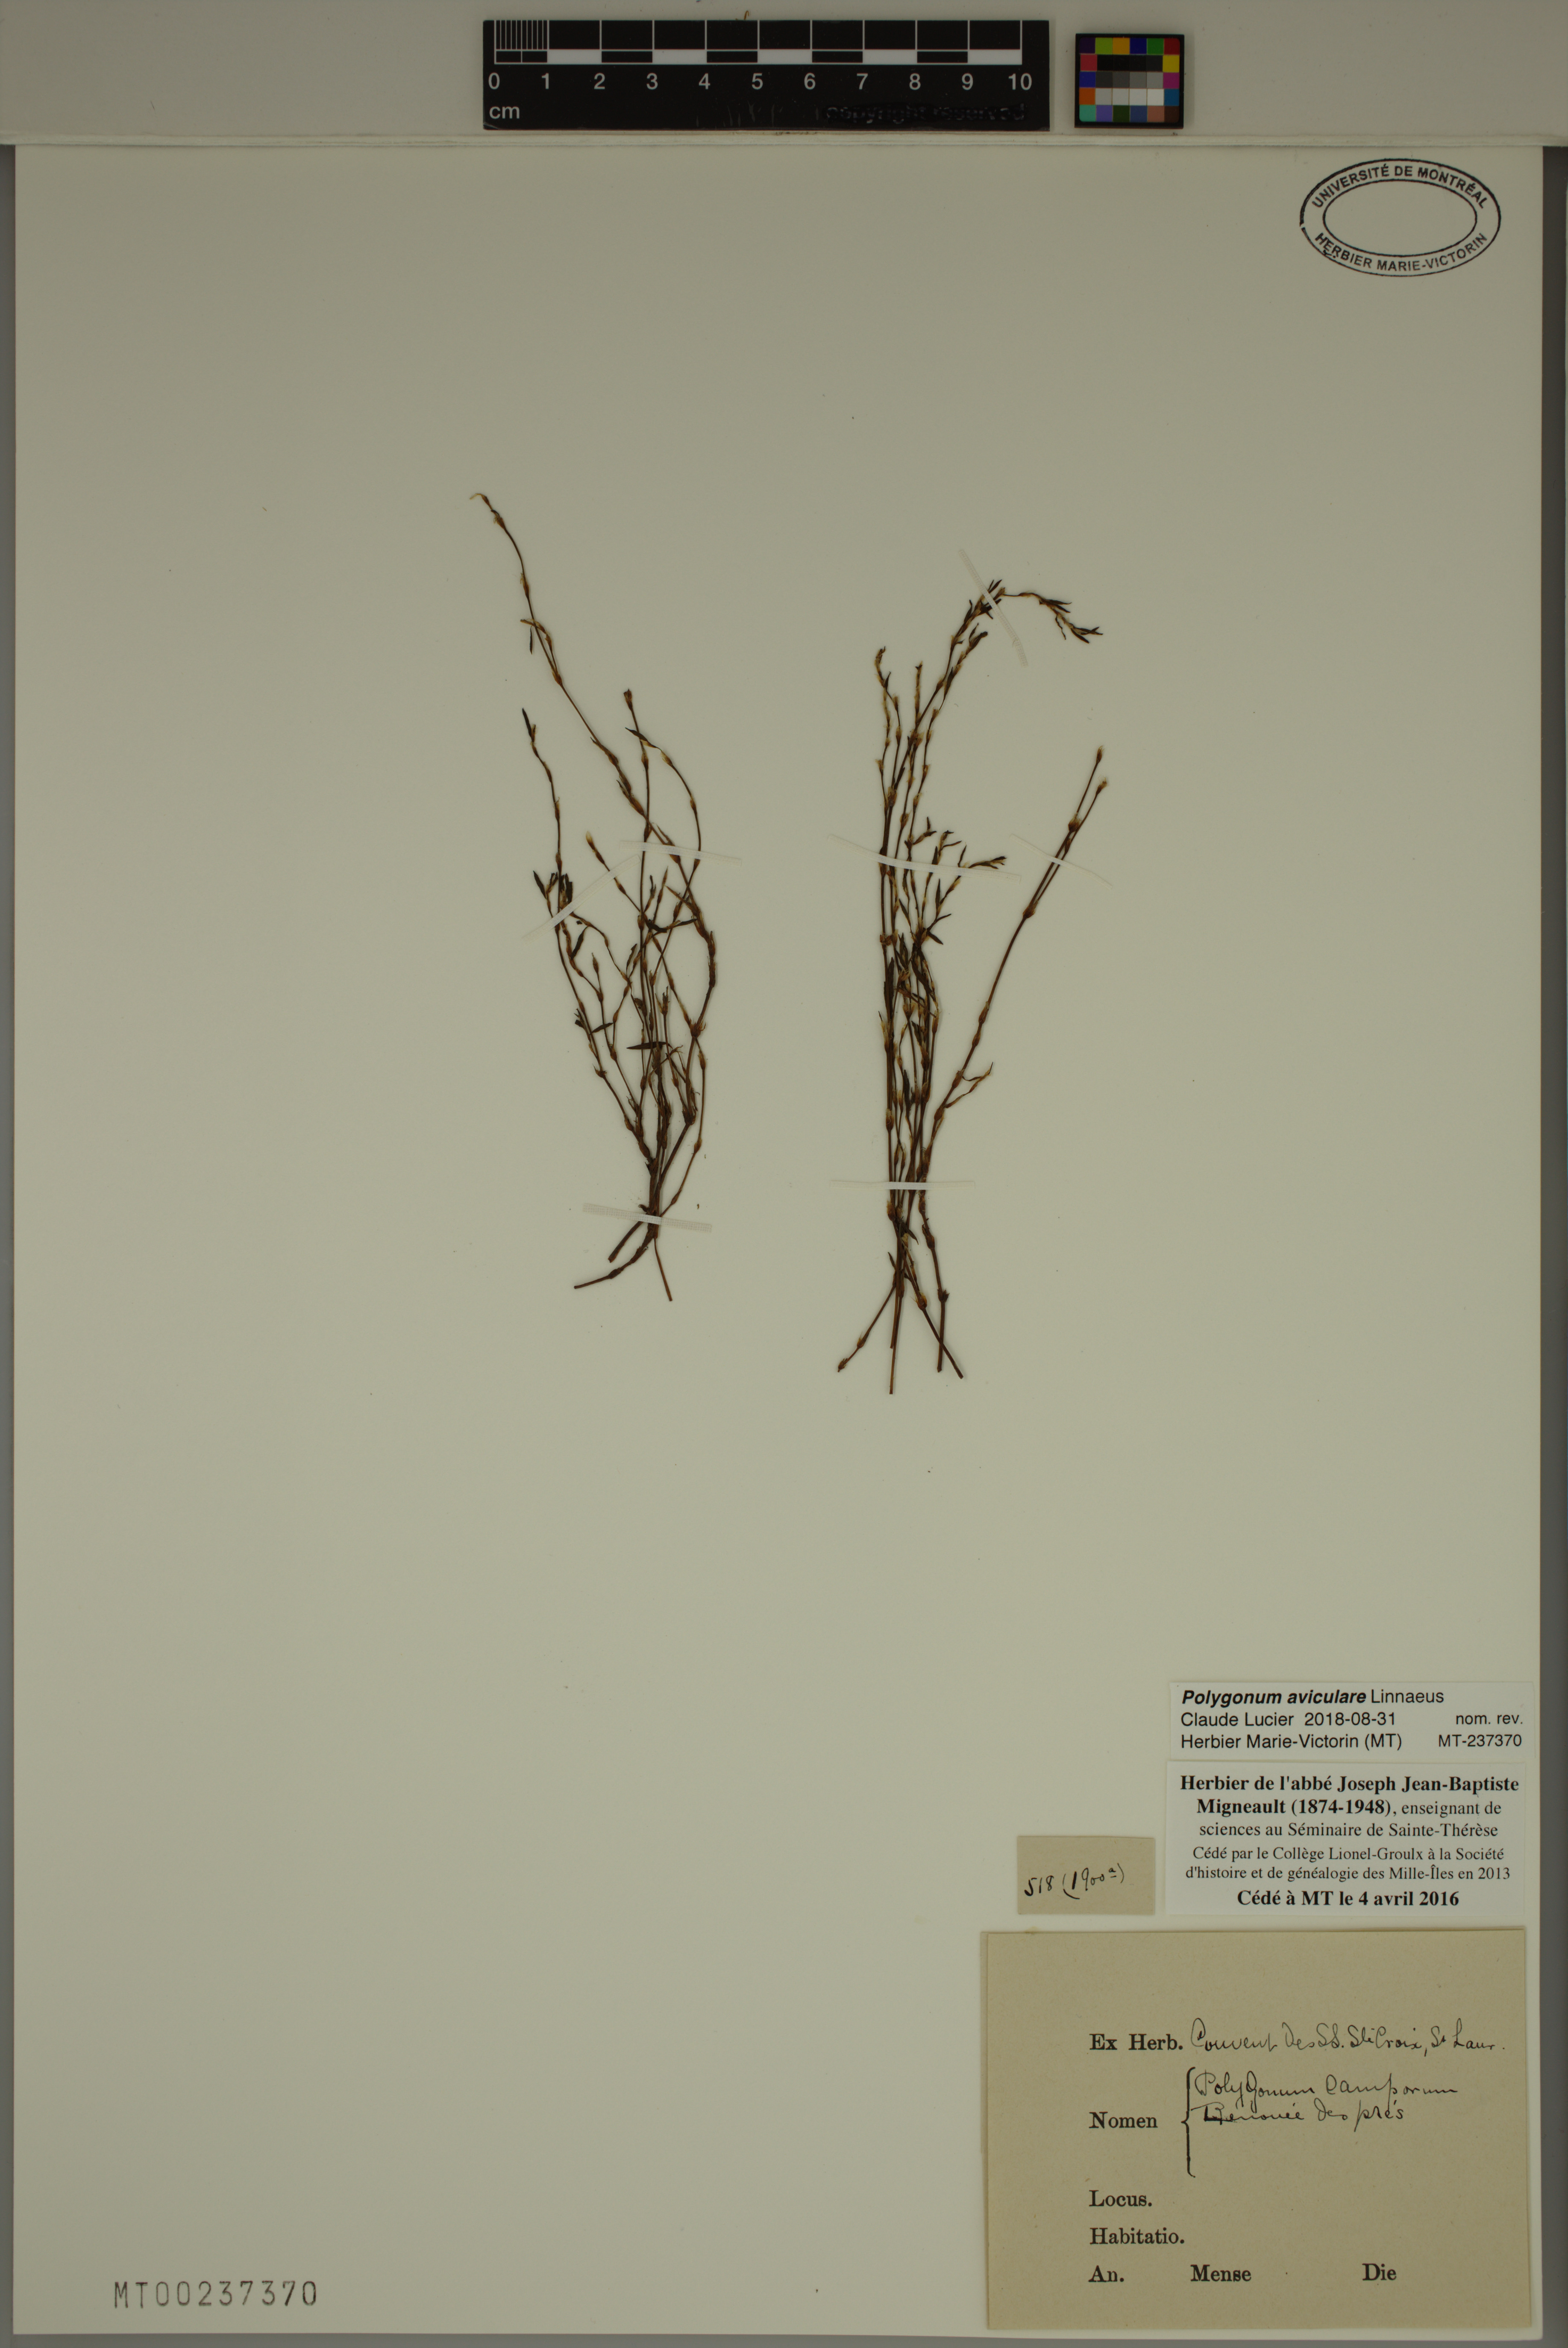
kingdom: Plantae
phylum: Tracheophyta
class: Magnoliopsida
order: Caryophyllales
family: Polygonaceae
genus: Polygonum
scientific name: Polygonum aviculare
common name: Prostrate knotweed
